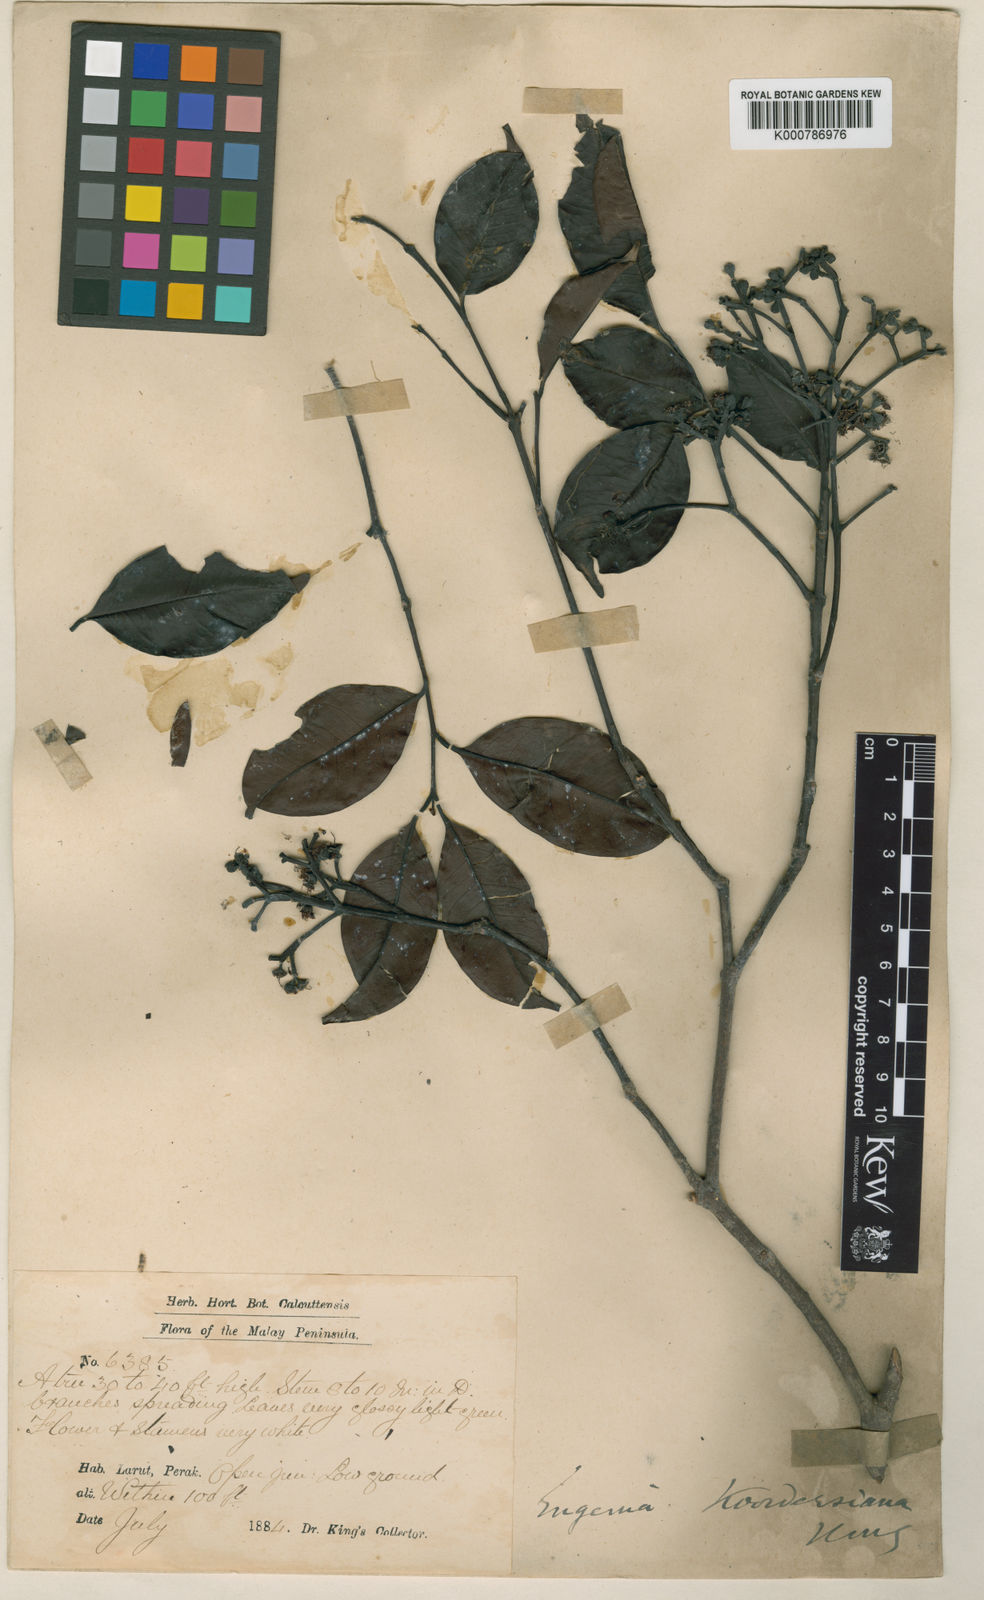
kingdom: Plantae
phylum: Tracheophyta
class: Magnoliopsida
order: Myrtales
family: Myrtaceae
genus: Syzygium
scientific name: Syzygium koordersianum
